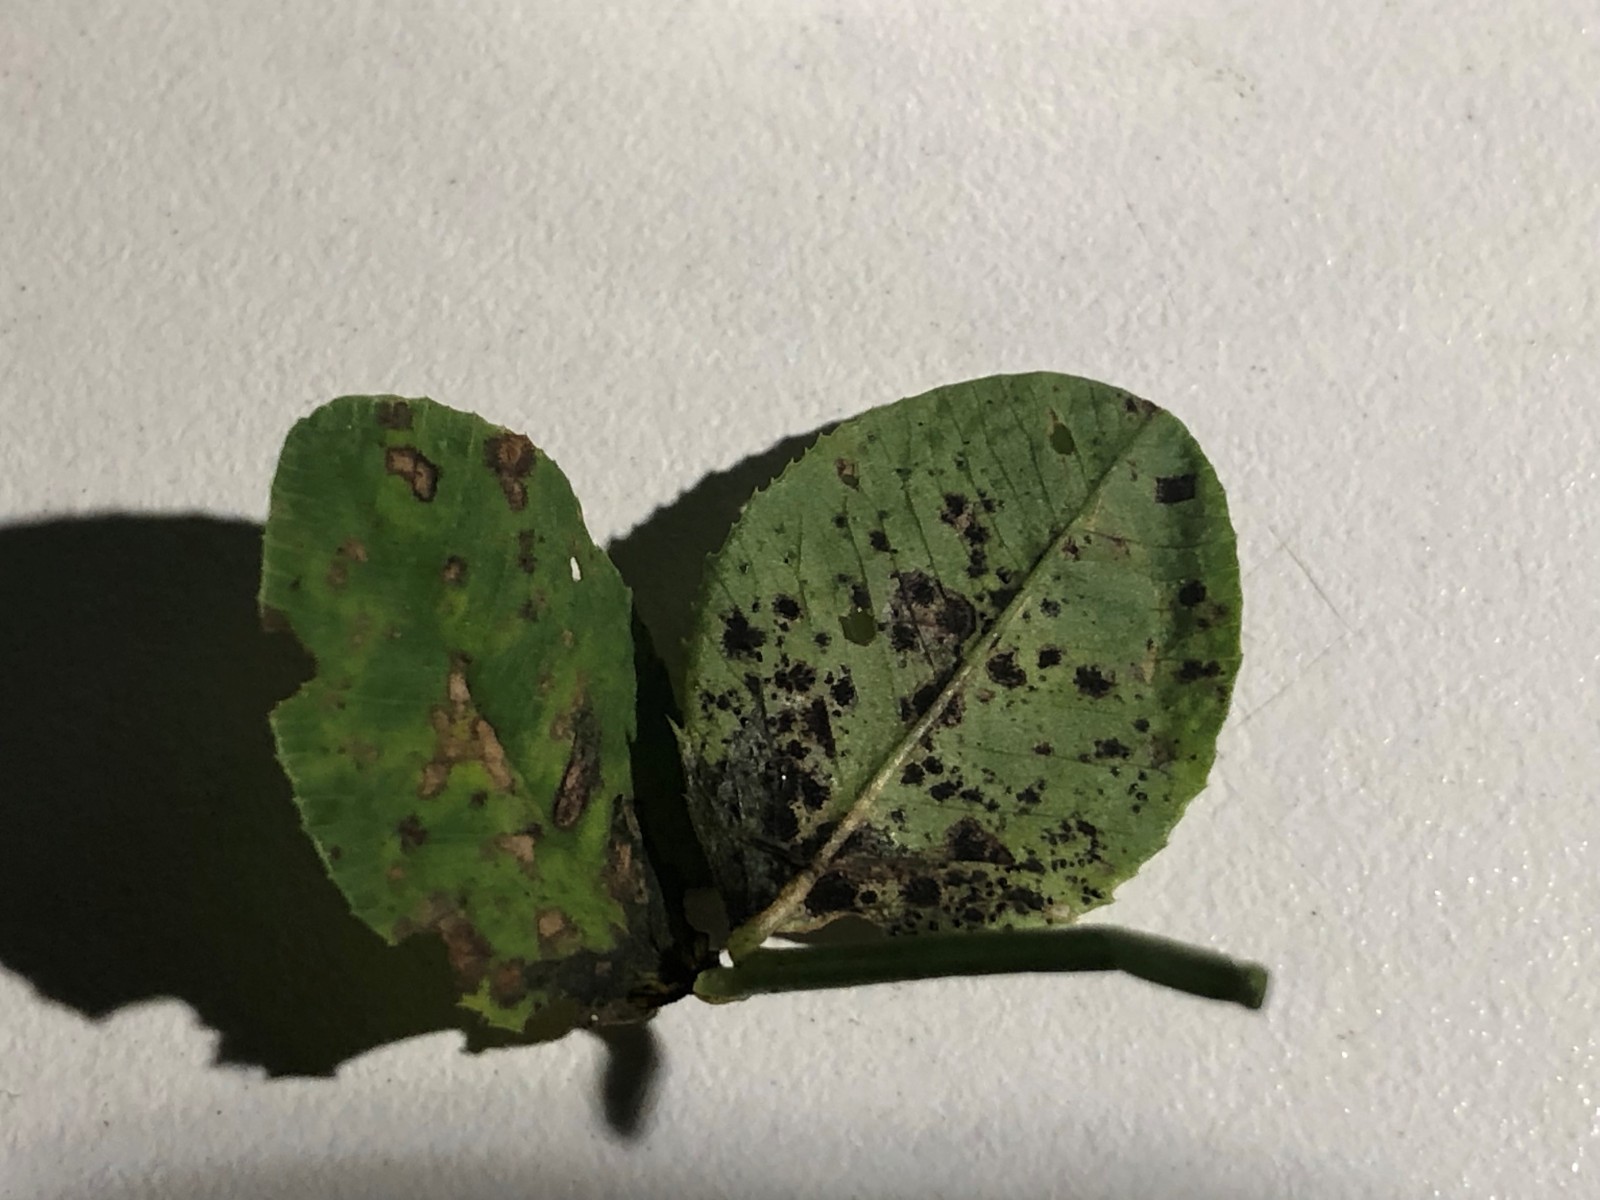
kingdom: Fungi
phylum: Ascomycota
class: Dothideomycetes
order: Mycosphaerellales
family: Mycosphaerellaceae
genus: Polythrincium
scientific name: Polythrincium trifolii
